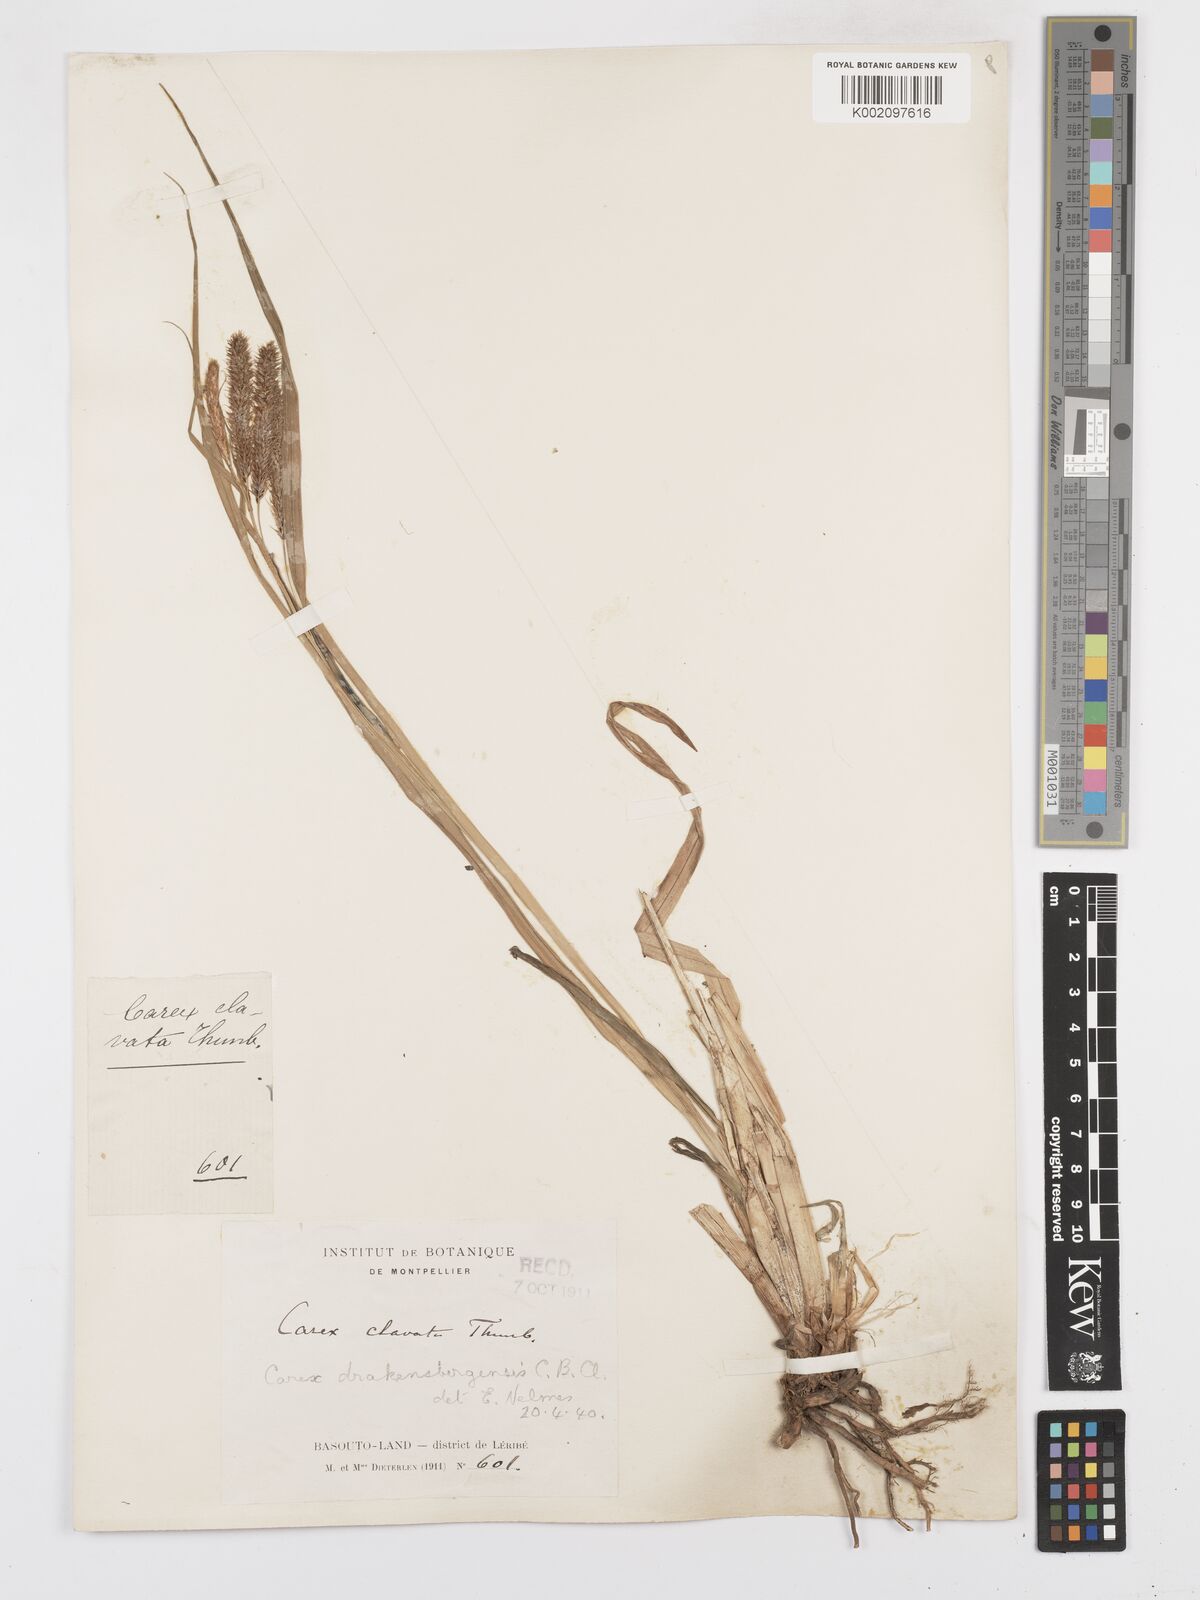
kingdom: Plantae
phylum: Tracheophyta
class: Liliopsida
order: Poales
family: Cyperaceae
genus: Carex
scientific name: Carex cognata
